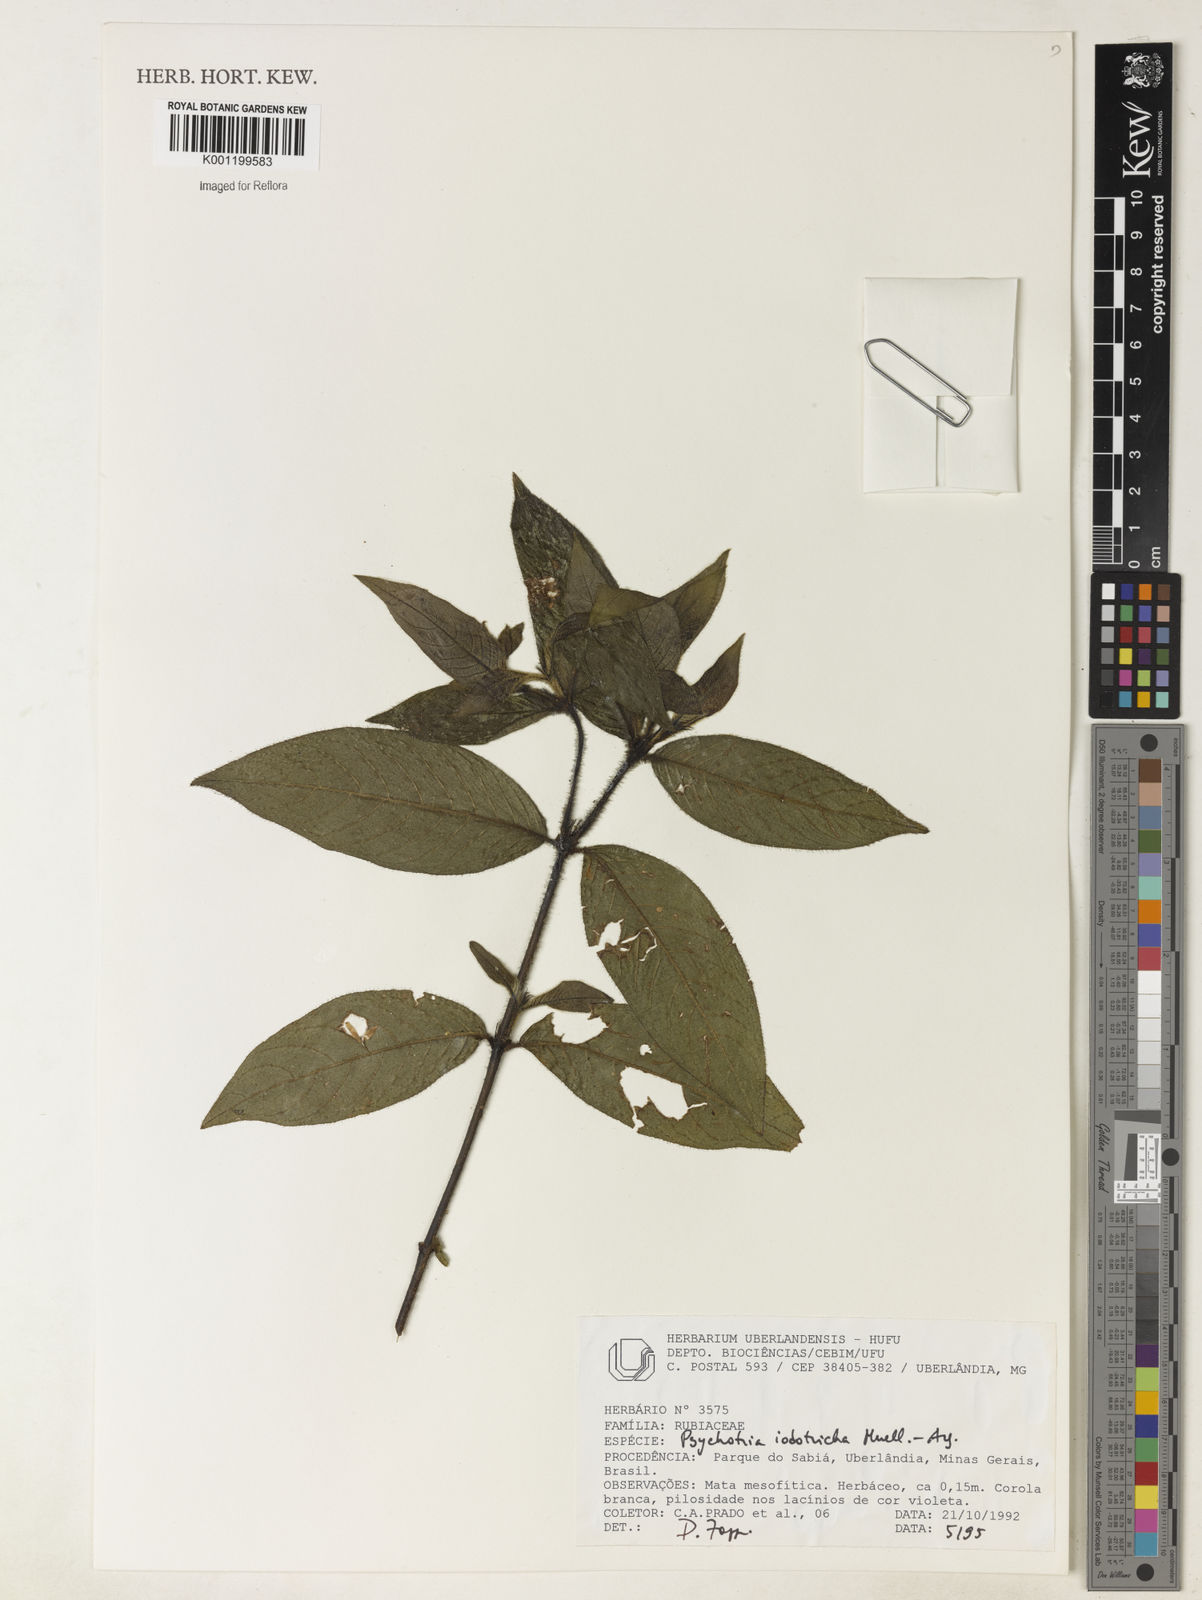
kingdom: Plantae
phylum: Tracheophyta
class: Magnoliopsida
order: Gentianales
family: Rubiaceae
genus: Psychotria
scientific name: Psychotria
